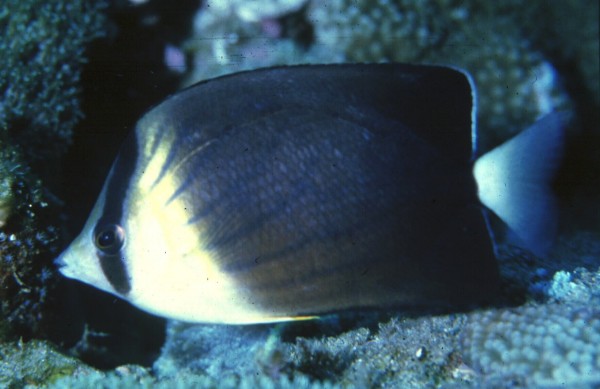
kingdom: Animalia
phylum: Chordata
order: Perciformes
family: Chaetodontidae
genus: Chaetodon
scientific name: Chaetodon blackburnii
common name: Blackburn's butterflyfish
